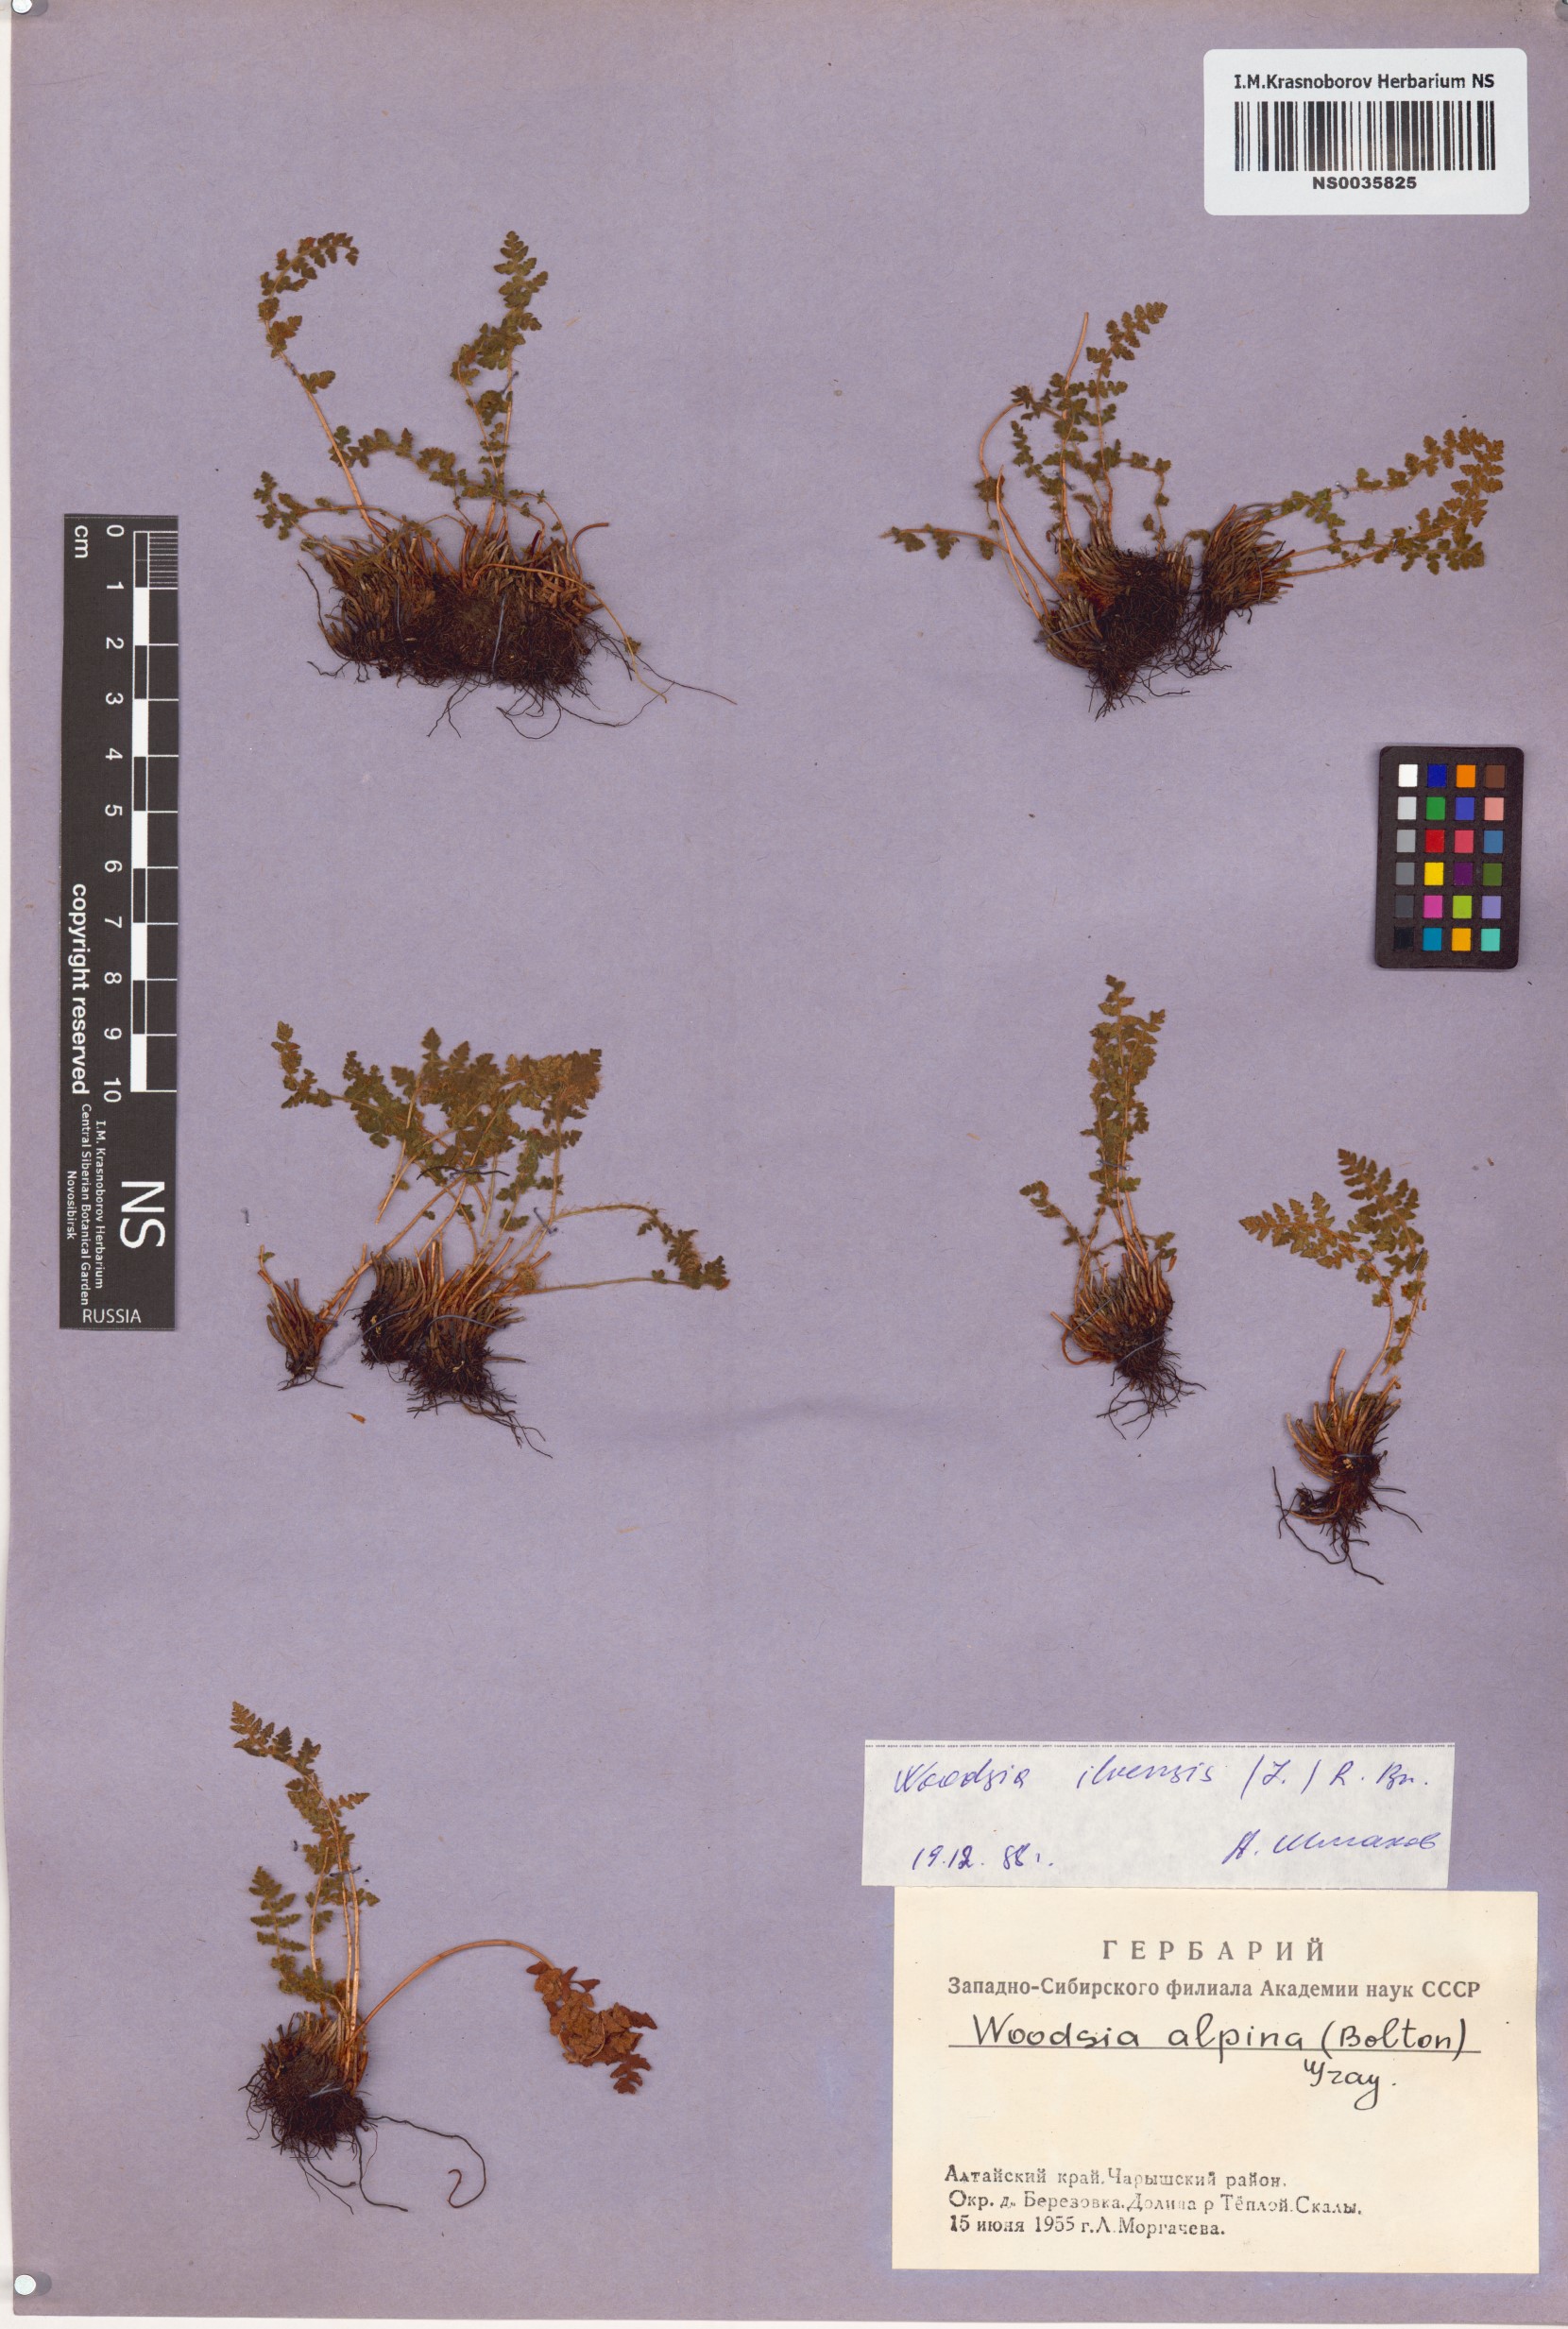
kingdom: Plantae
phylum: Tracheophyta
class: Polypodiopsida
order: Polypodiales
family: Woodsiaceae
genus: Woodsia
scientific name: Woodsia ilvensis
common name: Fragrant woodsia
